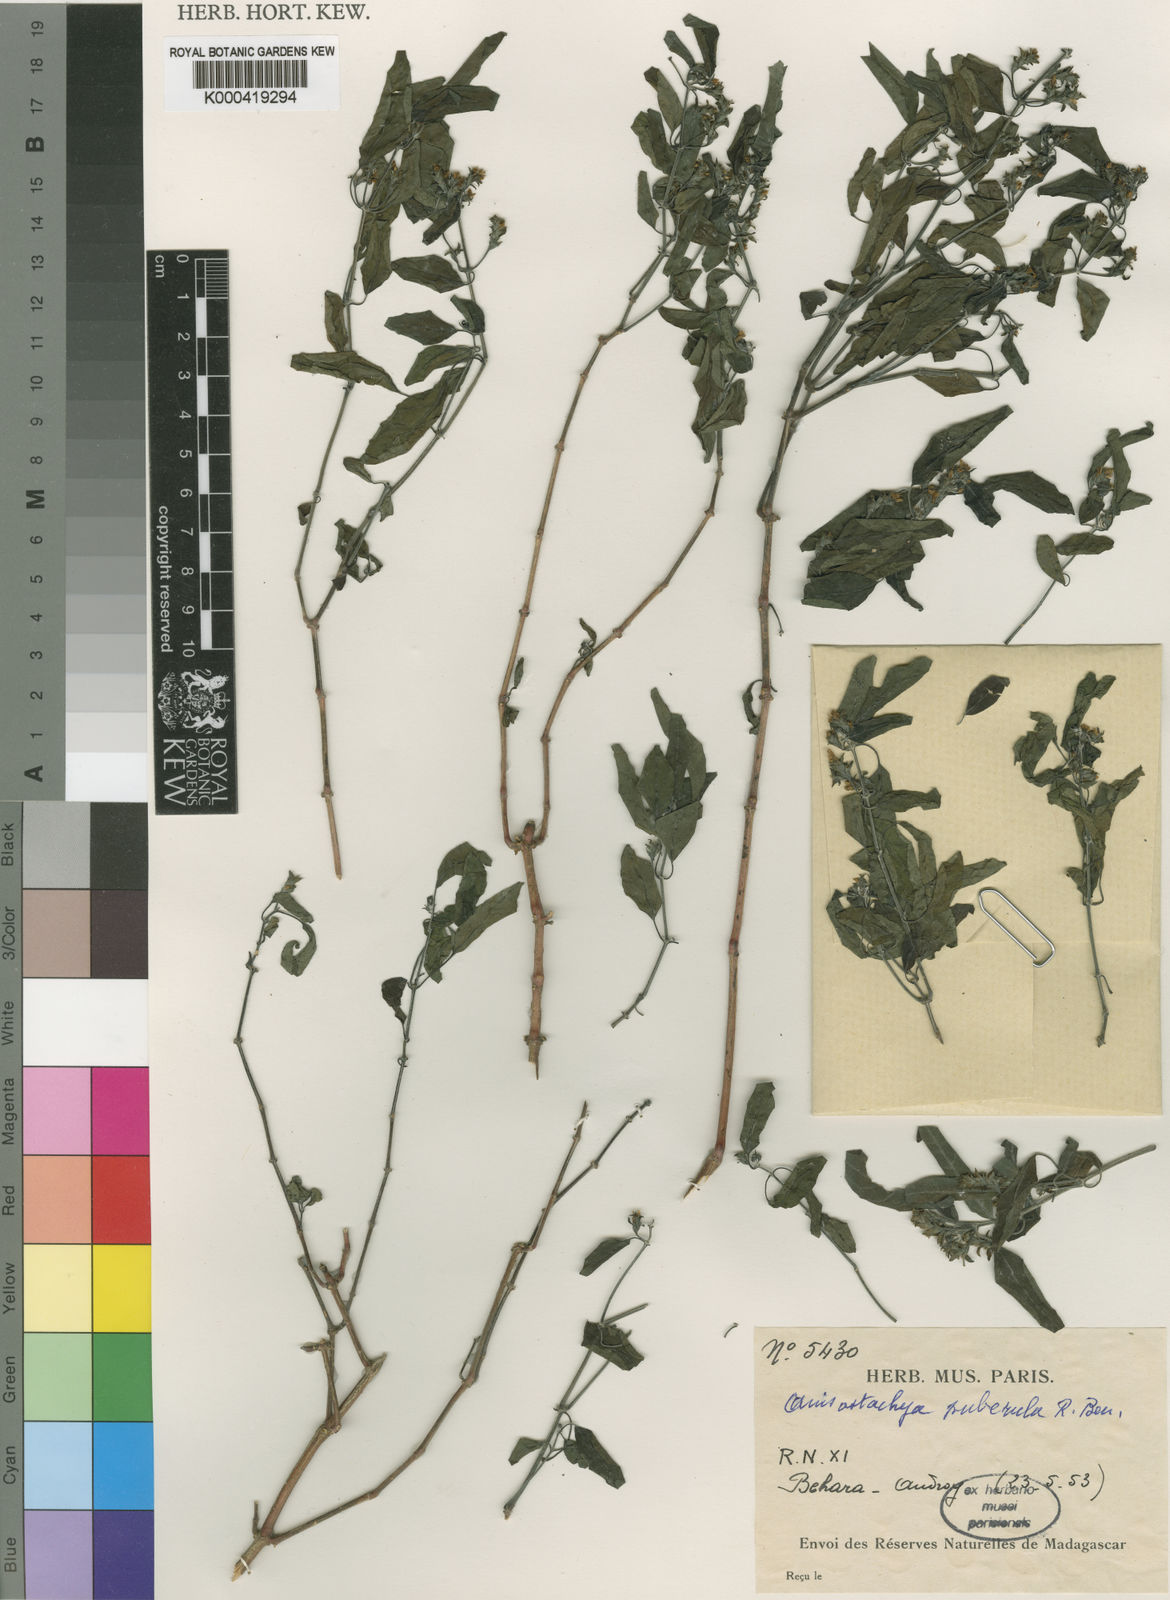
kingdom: Plantae
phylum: Tracheophyta
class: Magnoliopsida
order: Lamiales
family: Acanthaceae
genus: Justicia
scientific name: Justicia puberula
